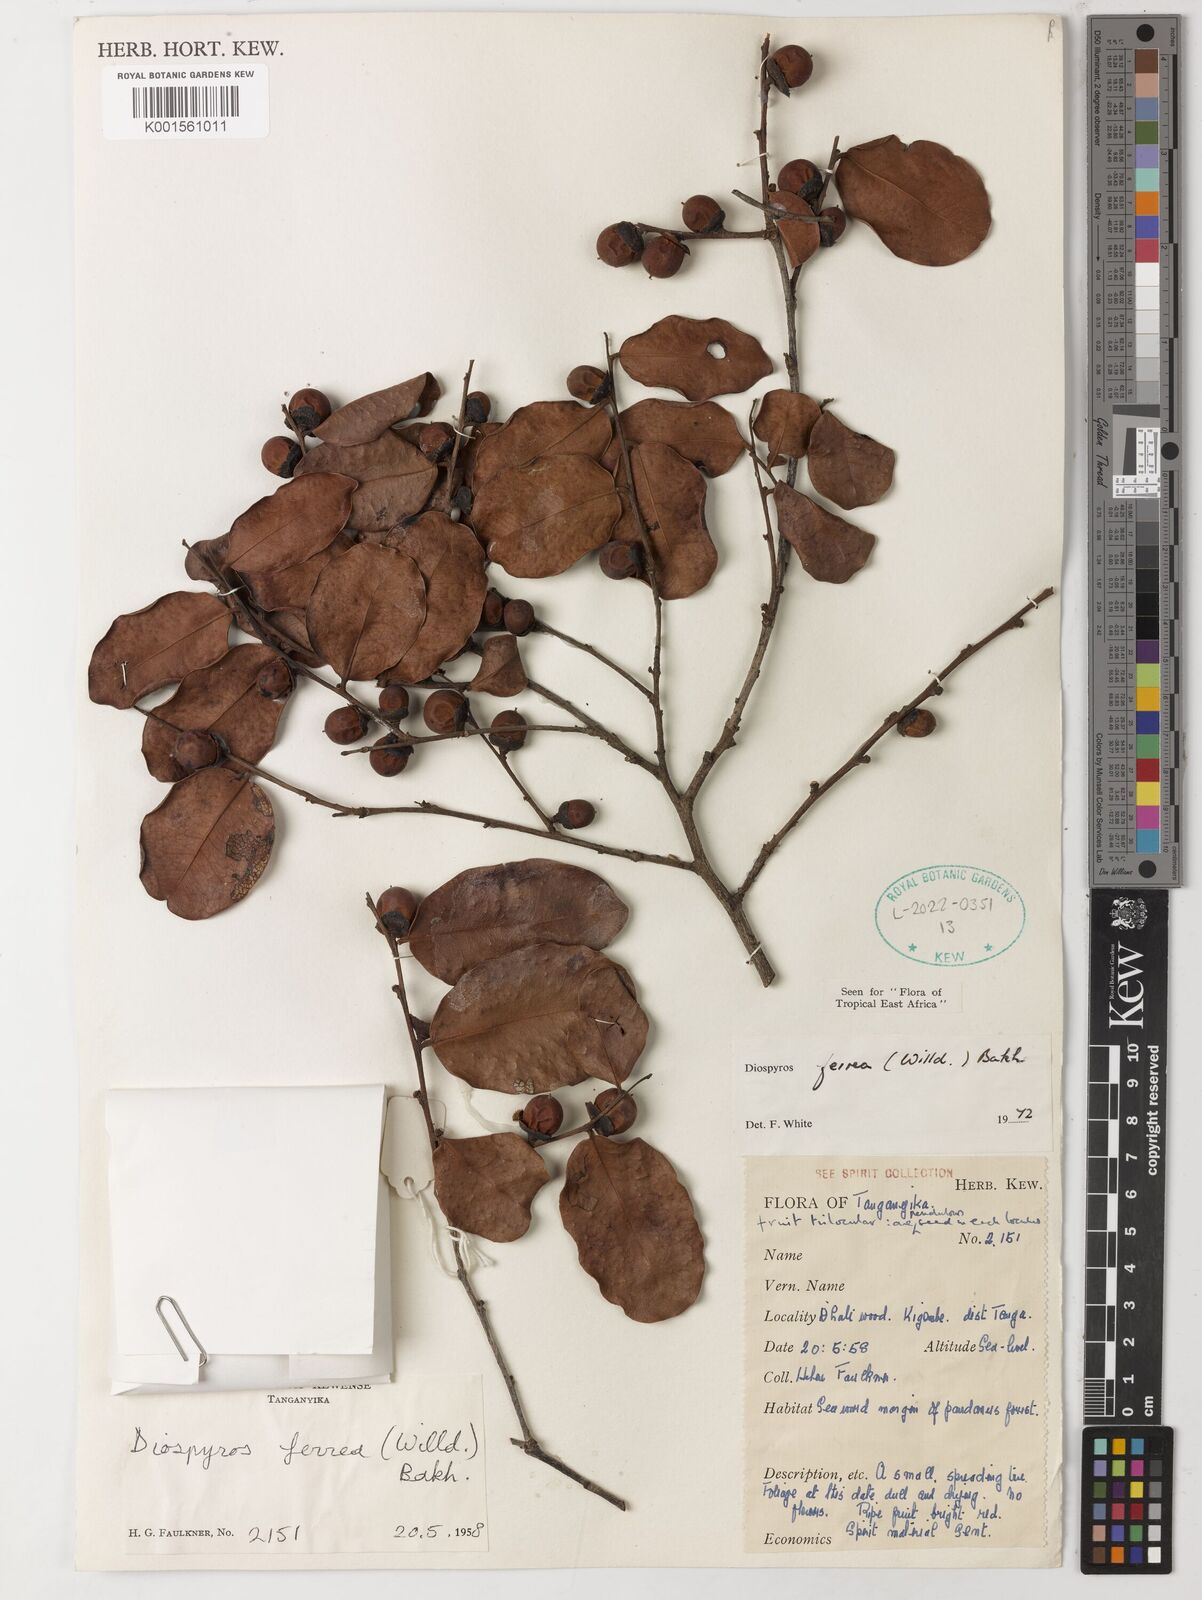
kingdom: Plantae
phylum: Tracheophyta
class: Magnoliopsida
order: Ericales
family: Ebenaceae
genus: Diospyros
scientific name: Diospyros ferrea
